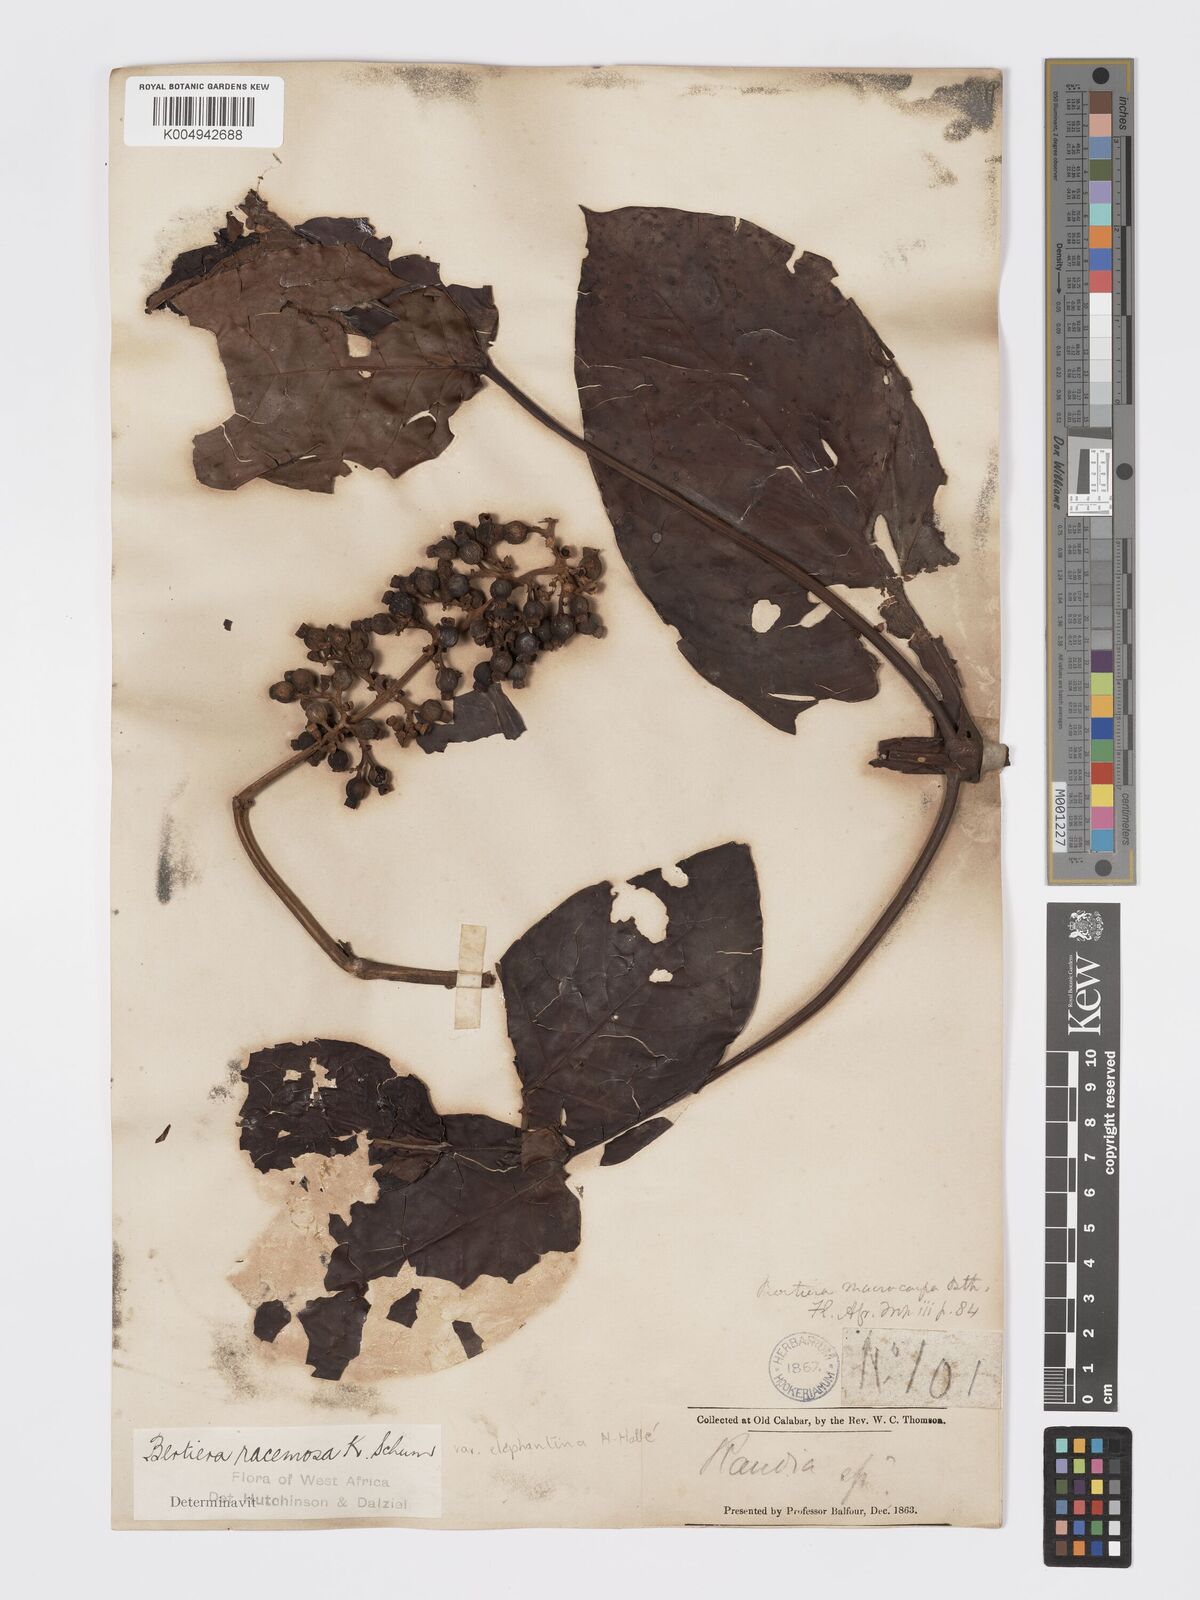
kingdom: Plantae
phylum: Tracheophyta
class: Magnoliopsida
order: Gentianales
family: Rubiaceae
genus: Bertiera
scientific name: Bertiera racemosa
